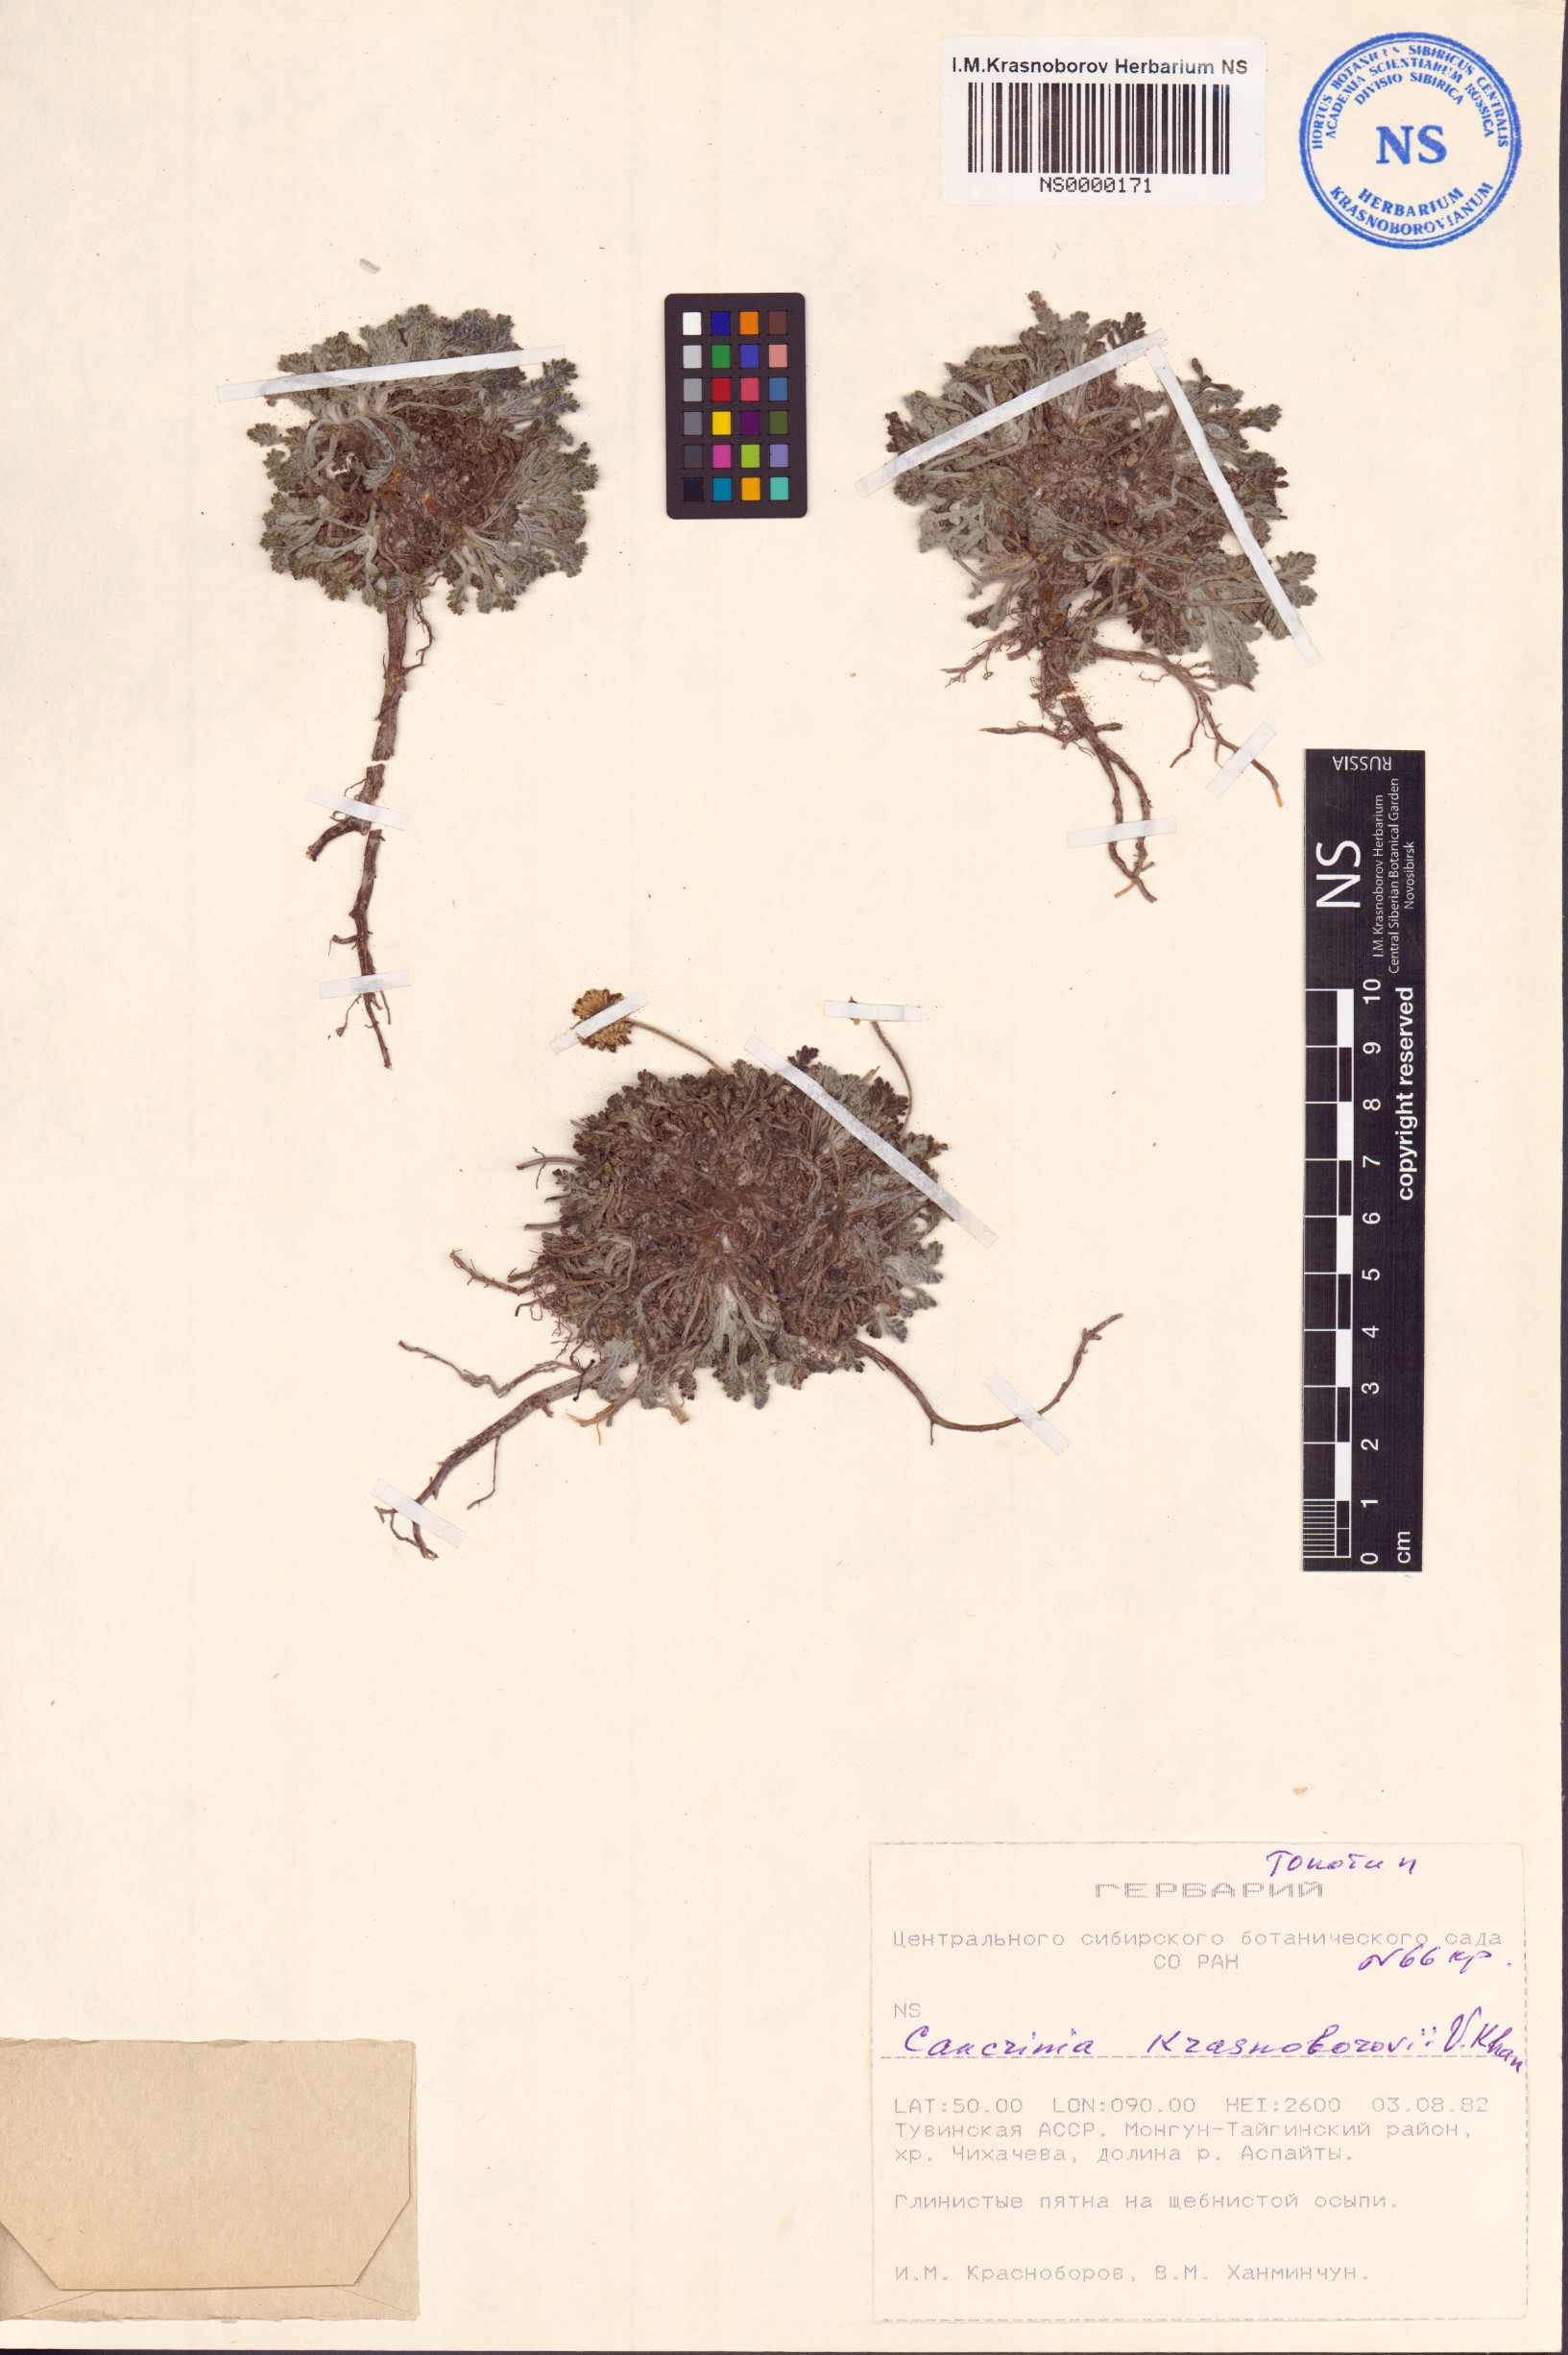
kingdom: Plantae
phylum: Tracheophyta
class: Magnoliopsida
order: Asterales
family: Asteraceae
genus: Cancrinia
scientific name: Cancrinia krasnoborovii
